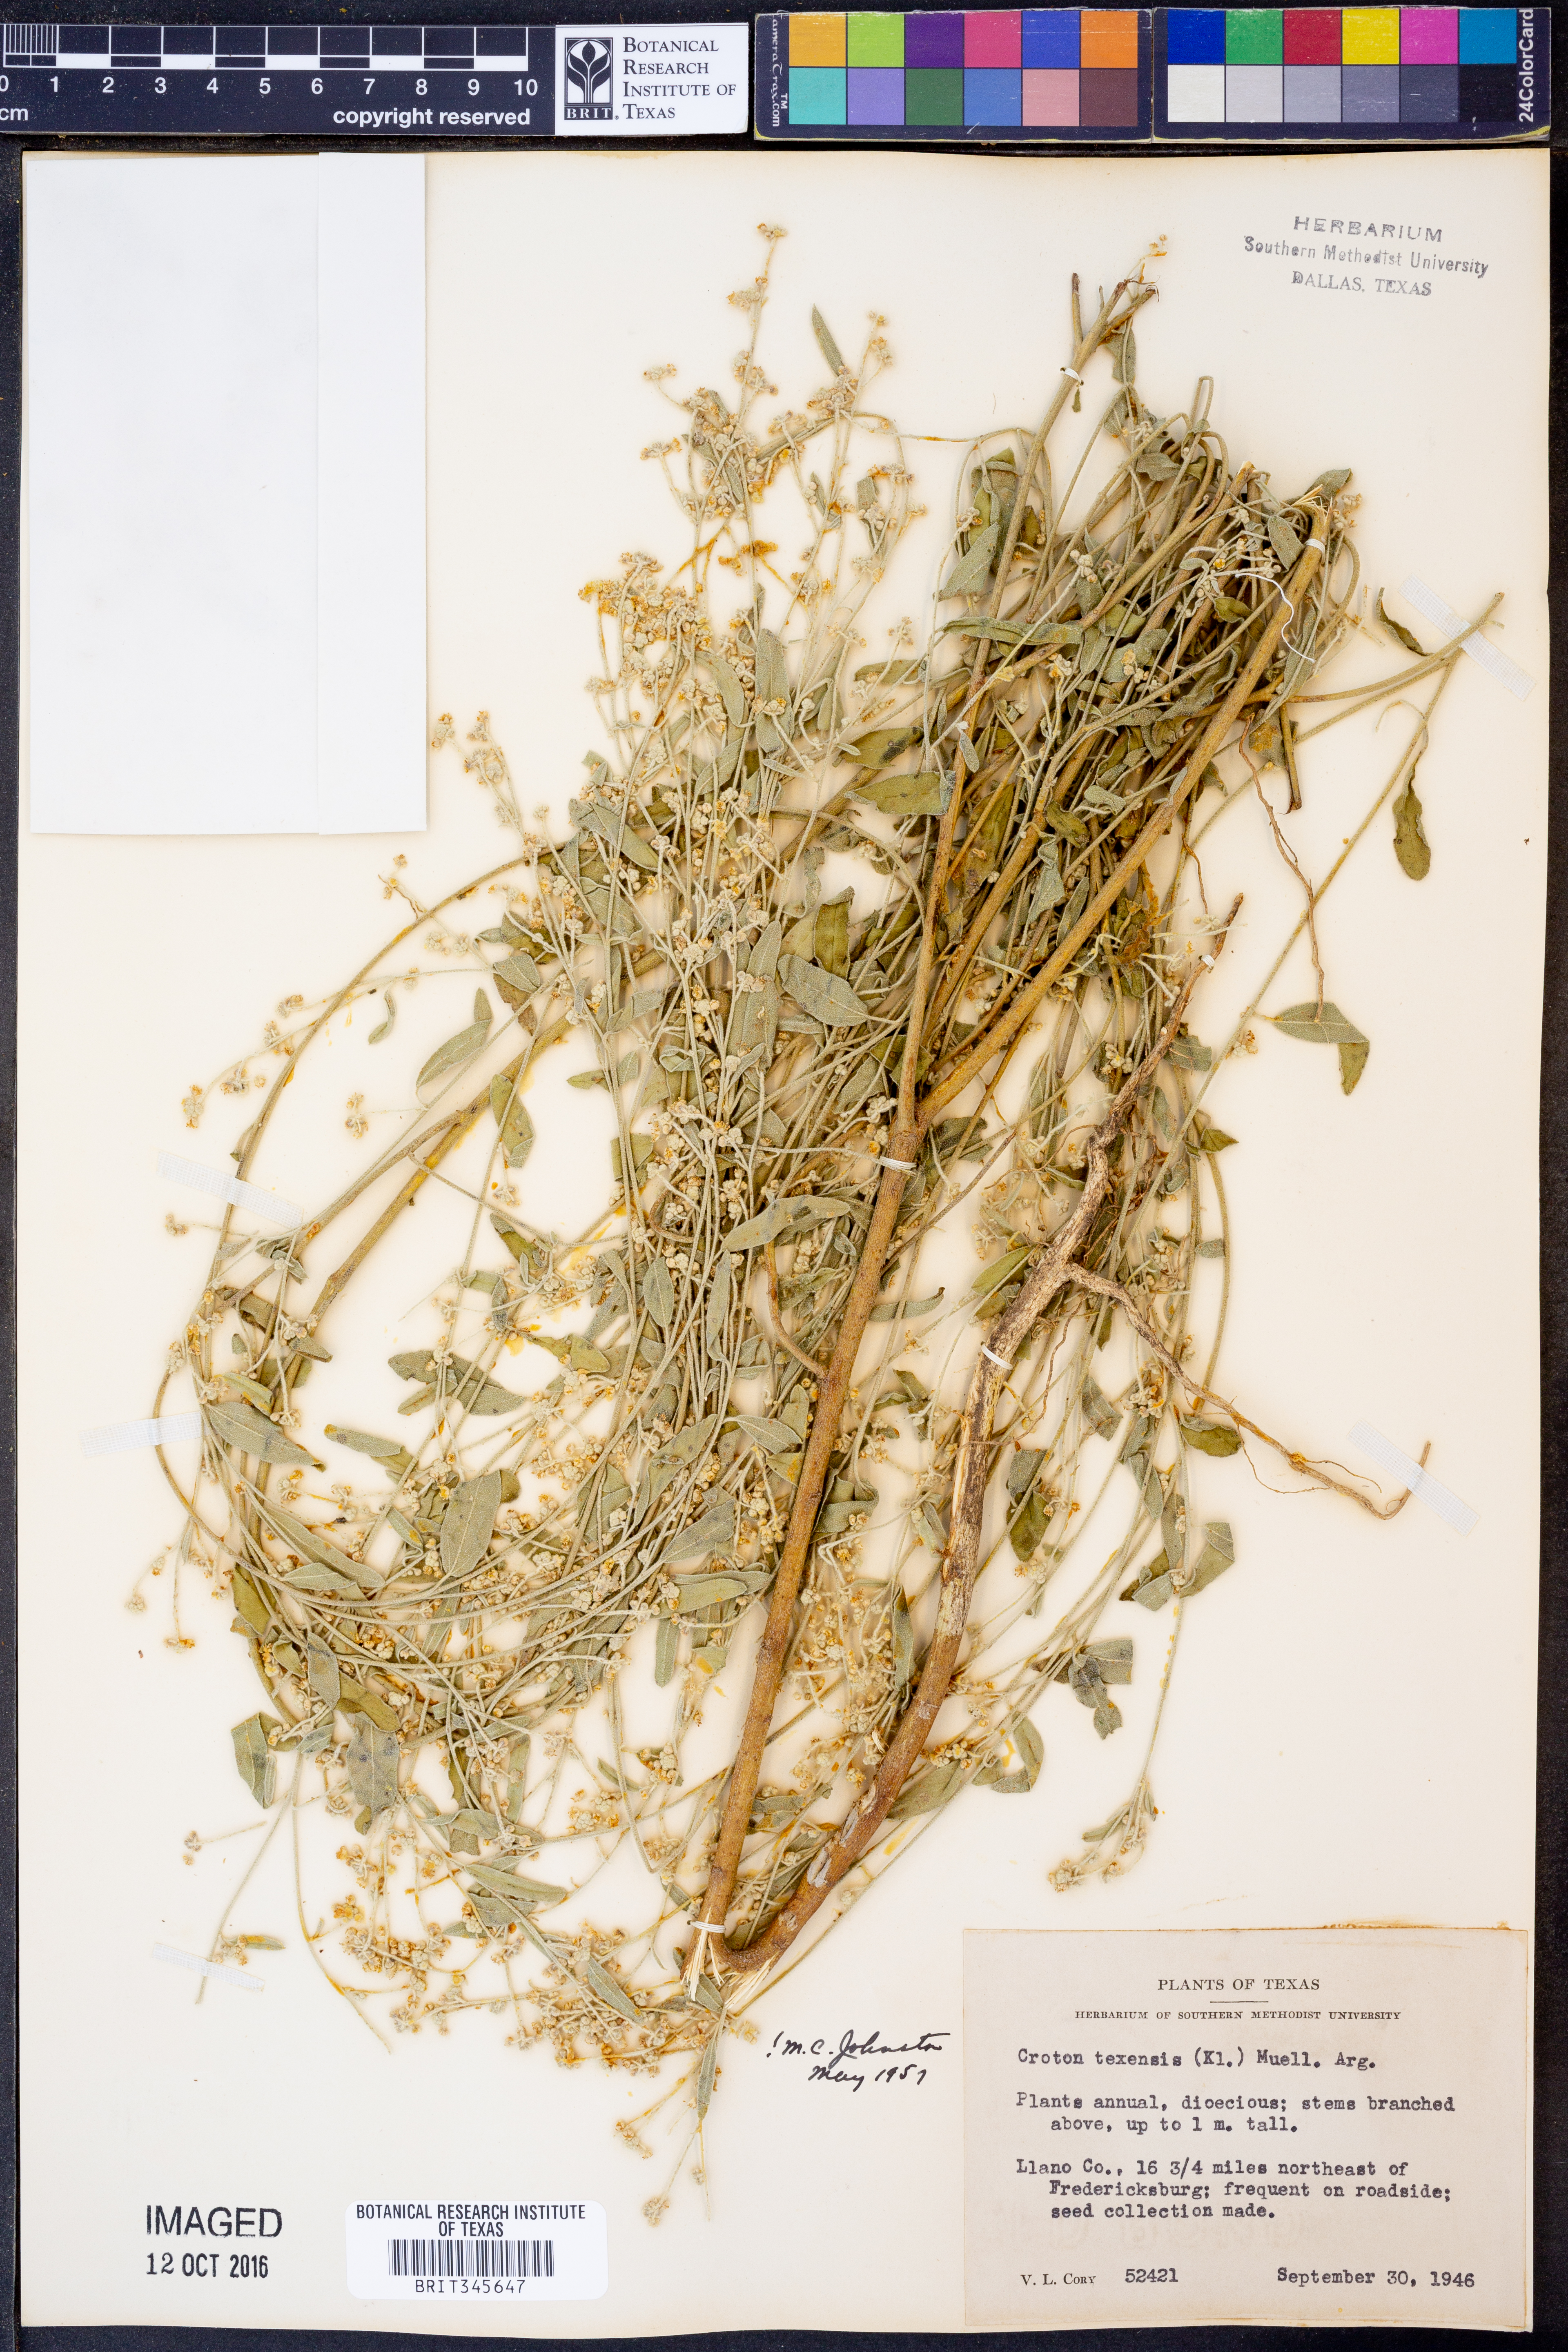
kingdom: Plantae
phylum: Tracheophyta
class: Magnoliopsida
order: Malpighiales
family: Euphorbiaceae
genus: Croton
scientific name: Croton texensis
